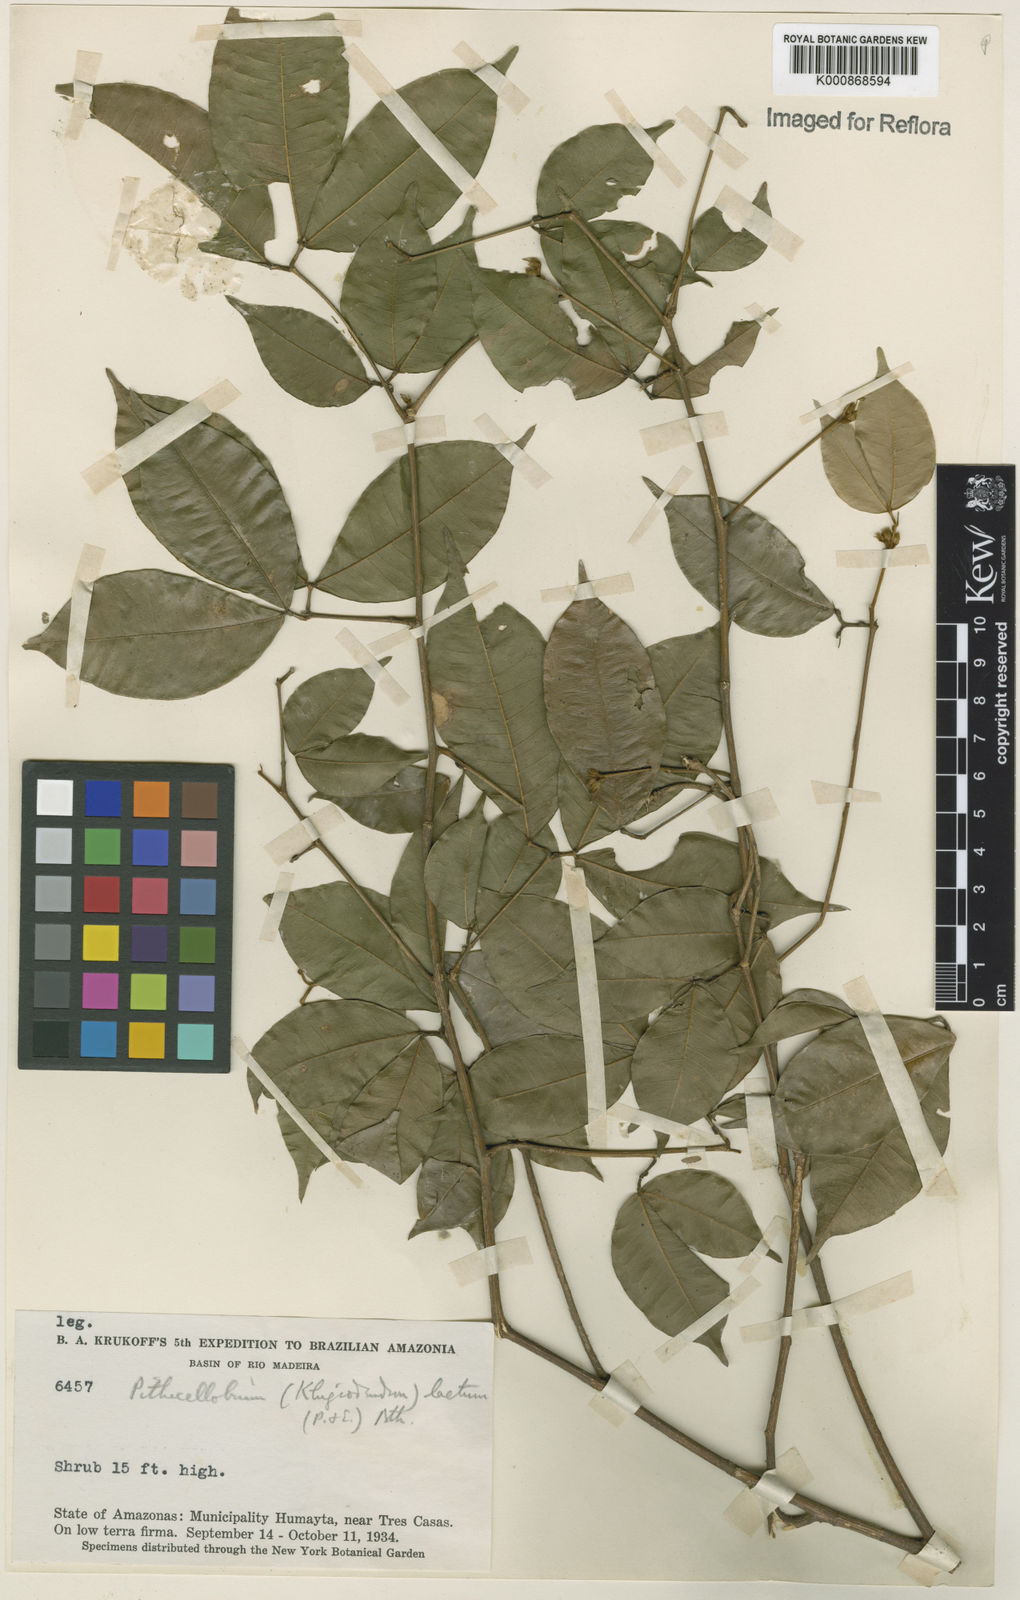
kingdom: Plantae
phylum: Tracheophyta
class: Magnoliopsida
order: Fabales
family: Fabaceae
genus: Jupunba
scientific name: Jupunba laeta
